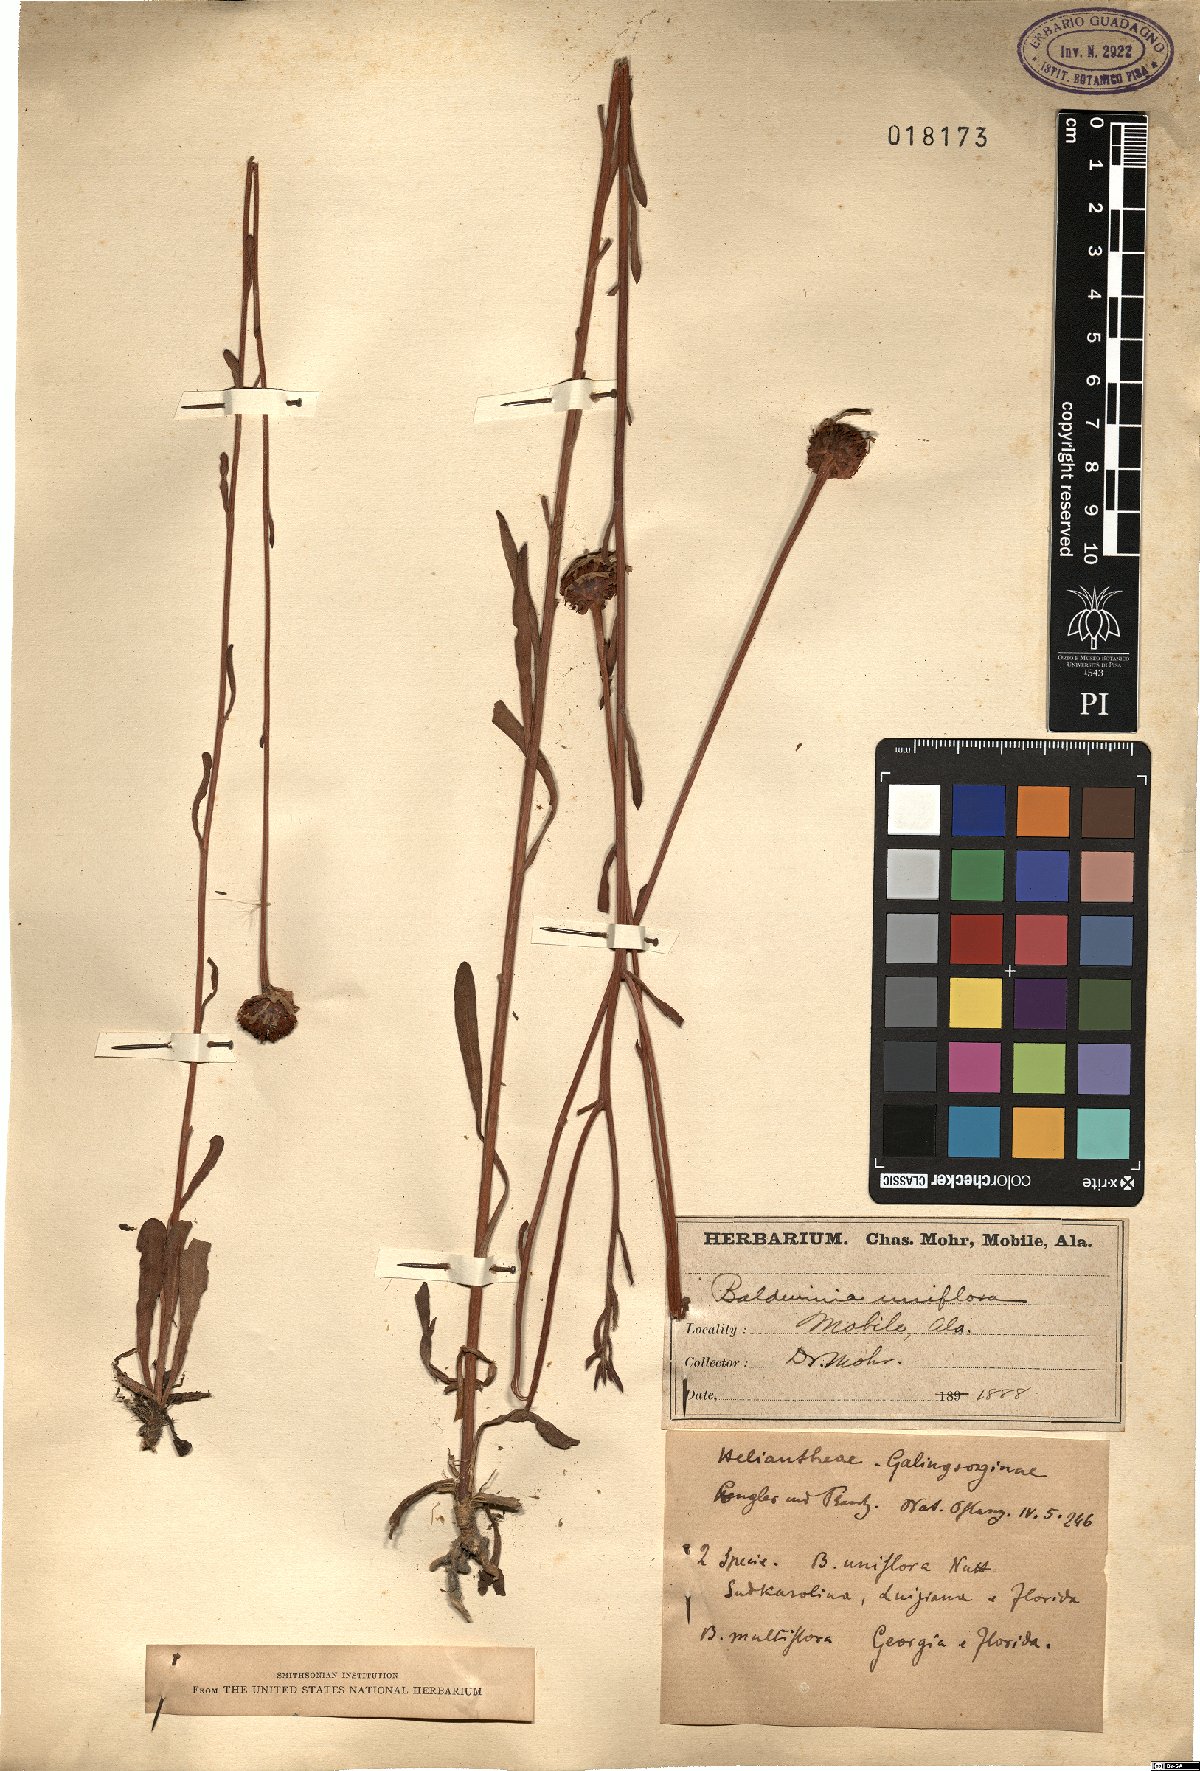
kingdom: Plantae
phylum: Tracheophyta
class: Magnoliopsida
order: Asterales
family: Asteraceae
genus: Balduina
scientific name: Balduina uniflora
